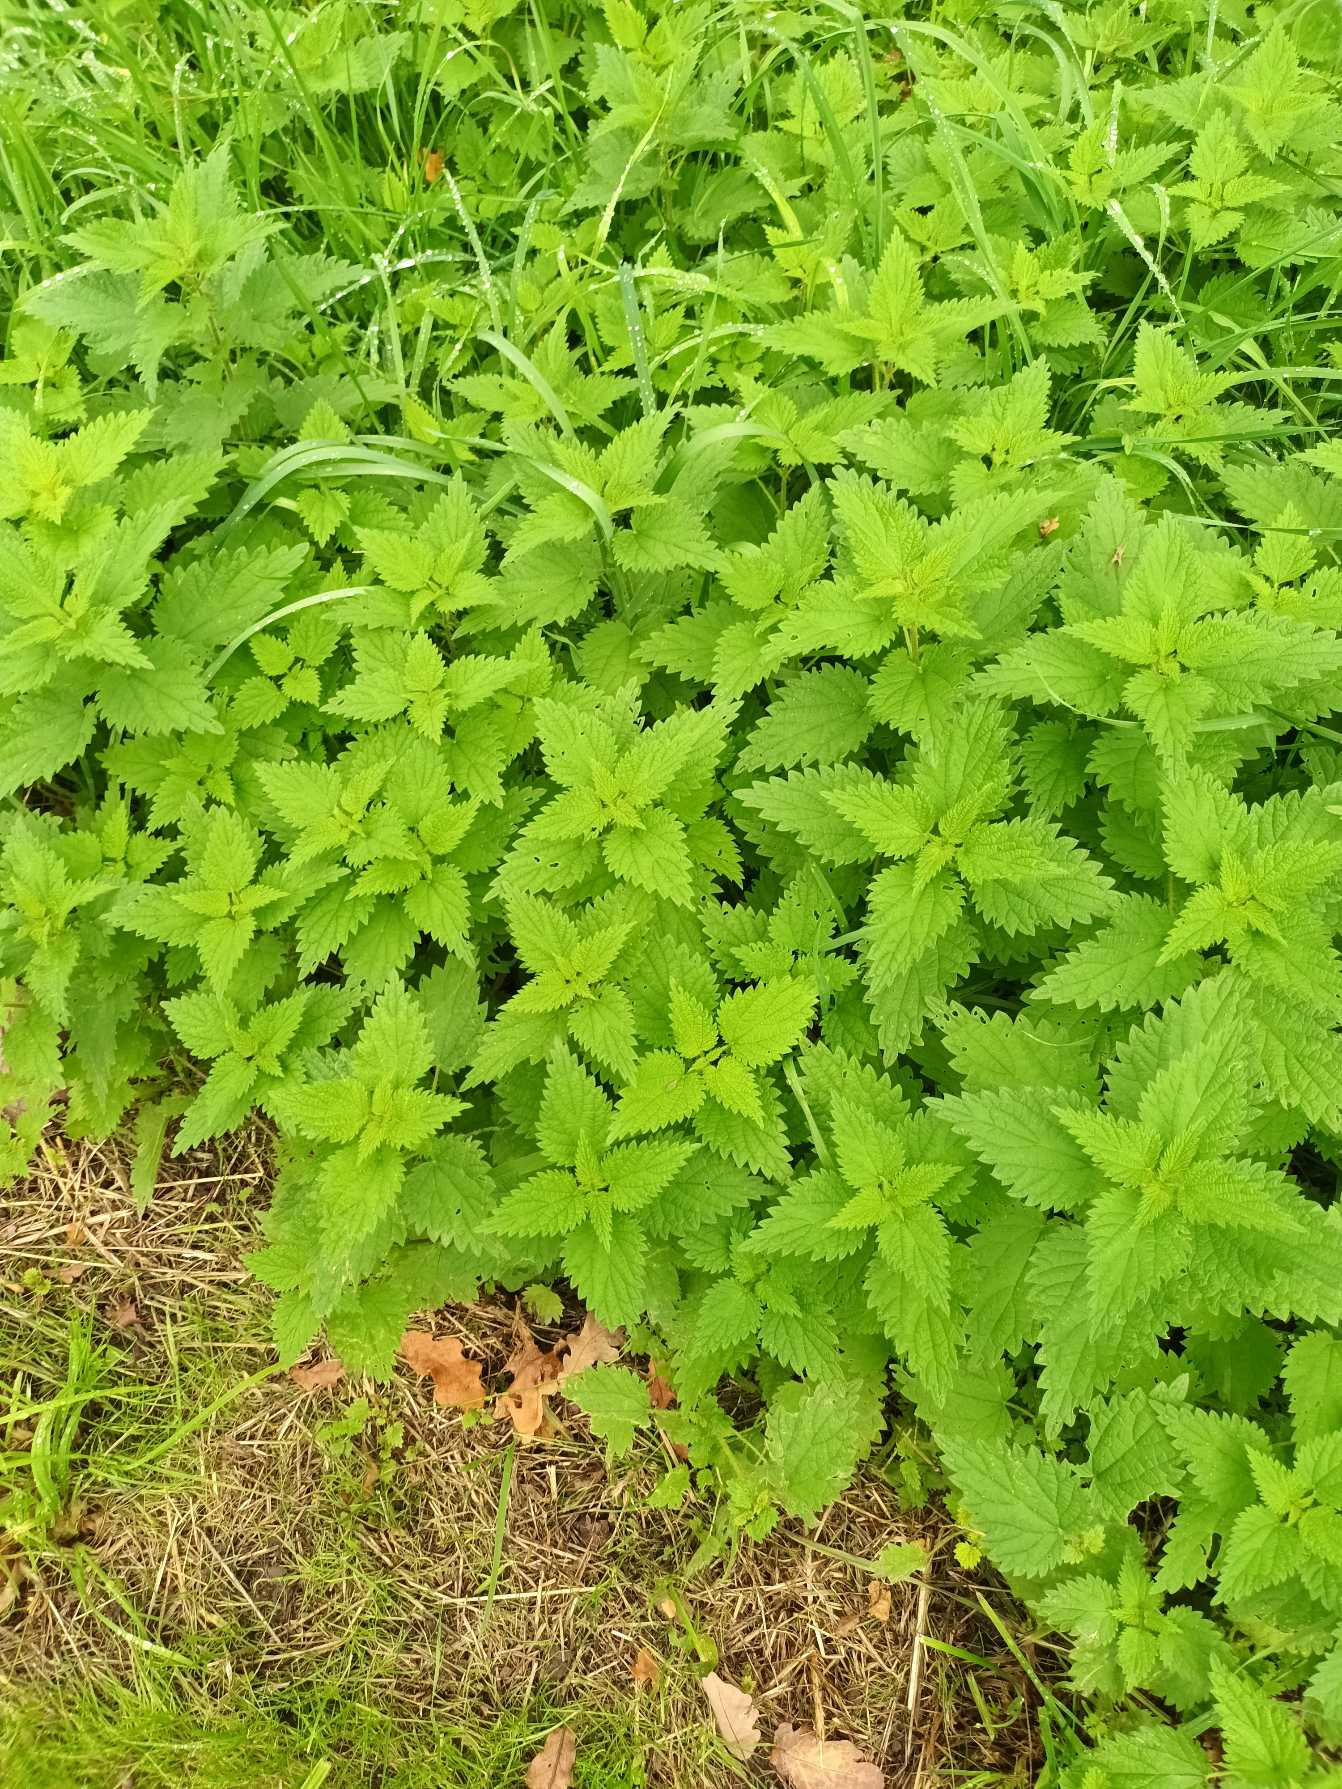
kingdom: Plantae
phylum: Tracheophyta
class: Magnoliopsida
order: Rosales
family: Urticaceae
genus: Urtica
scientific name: Urtica dioica
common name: Stor nælde
